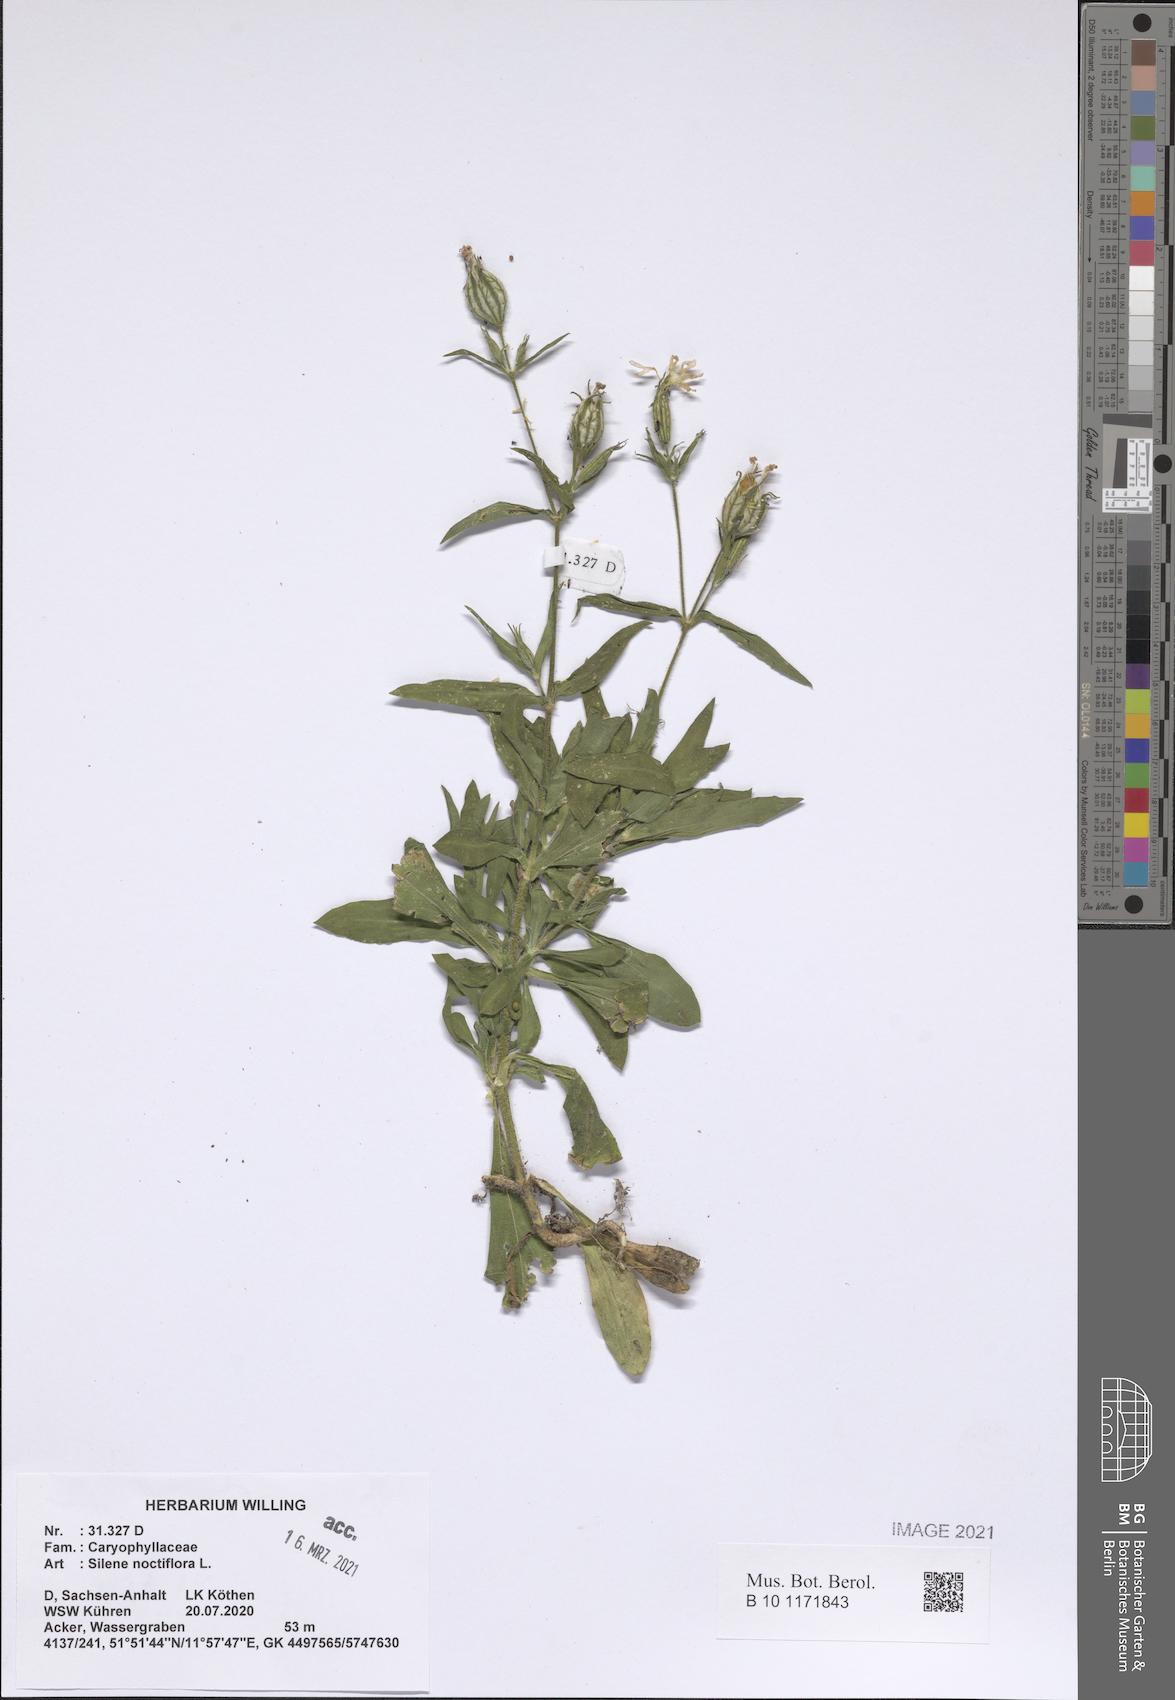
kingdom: Plantae
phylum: Tracheophyta
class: Magnoliopsida
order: Caryophyllales
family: Caryophyllaceae
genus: Silene
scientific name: Silene noctiflora
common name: Night-flowering catchfly
